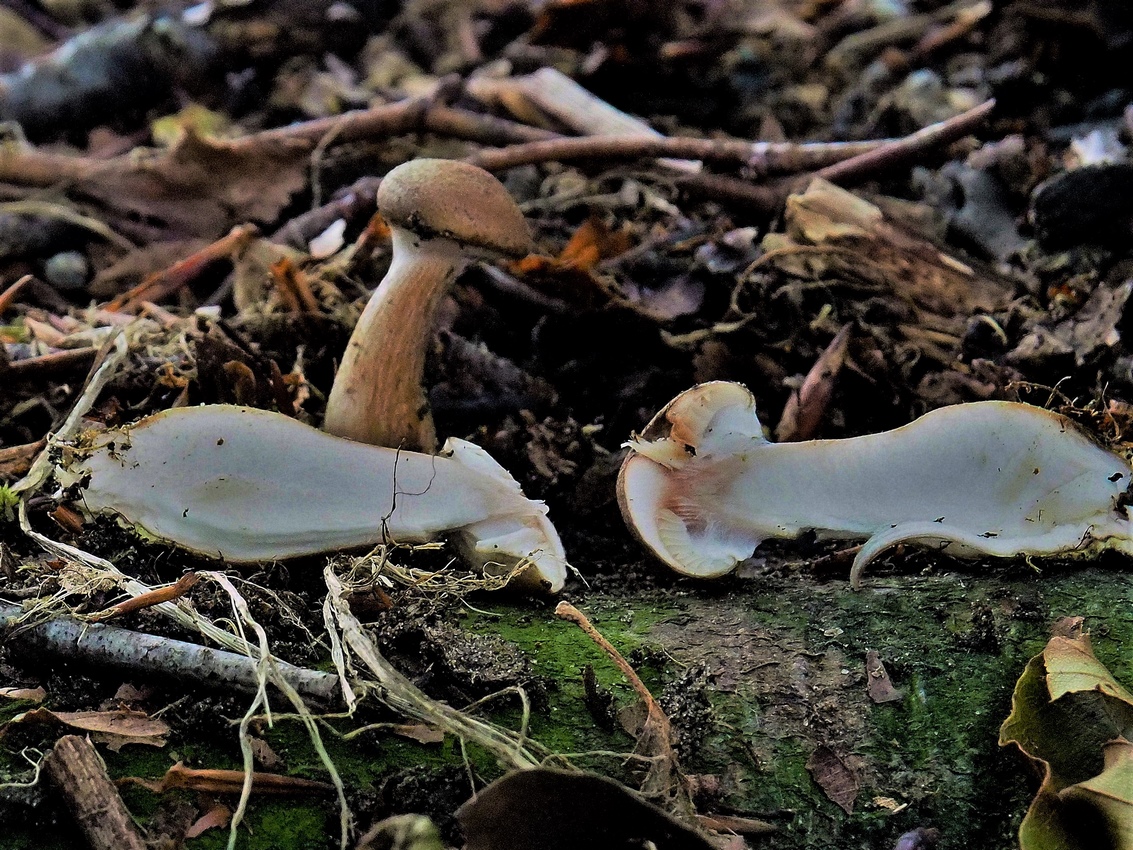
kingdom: Fungi
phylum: Basidiomycota
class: Agaricomycetes
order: Agaricales
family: Physalacriaceae
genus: Armillaria
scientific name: Armillaria lutea
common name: køllestokket honningsvamp
